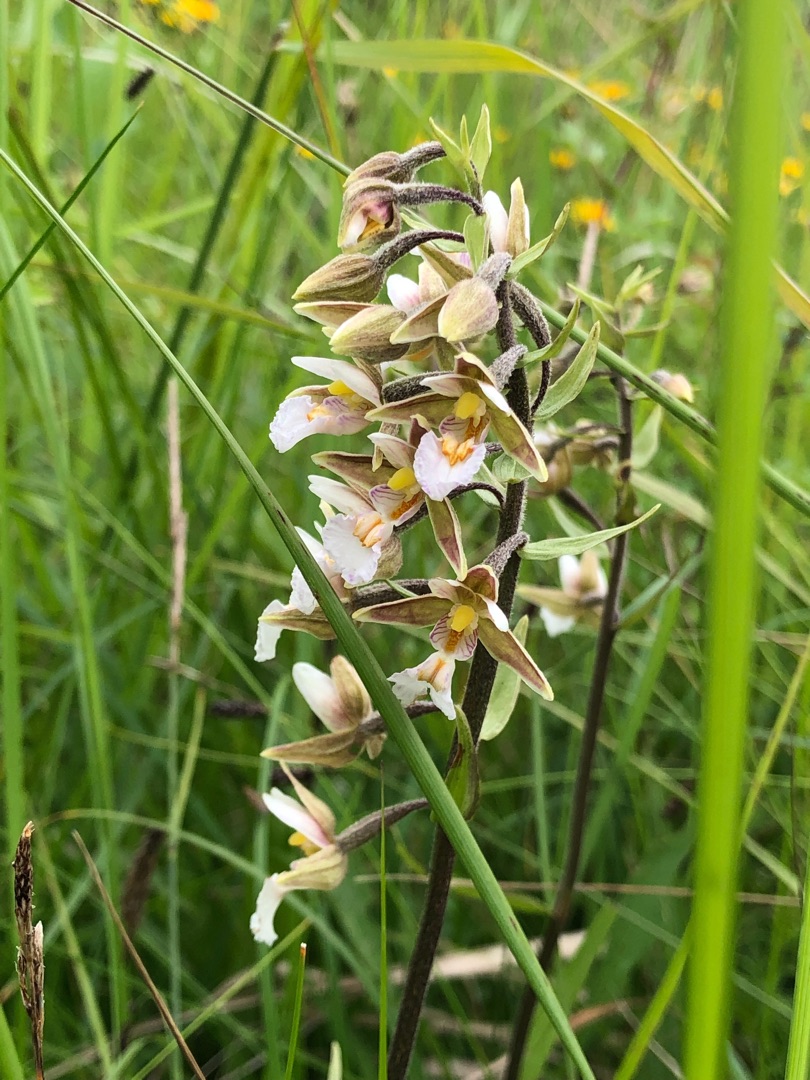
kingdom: Plantae
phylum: Tracheophyta
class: Liliopsida
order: Asparagales
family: Orchidaceae
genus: Epipactis
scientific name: Epipactis palustris
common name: Sump-hullæbe
